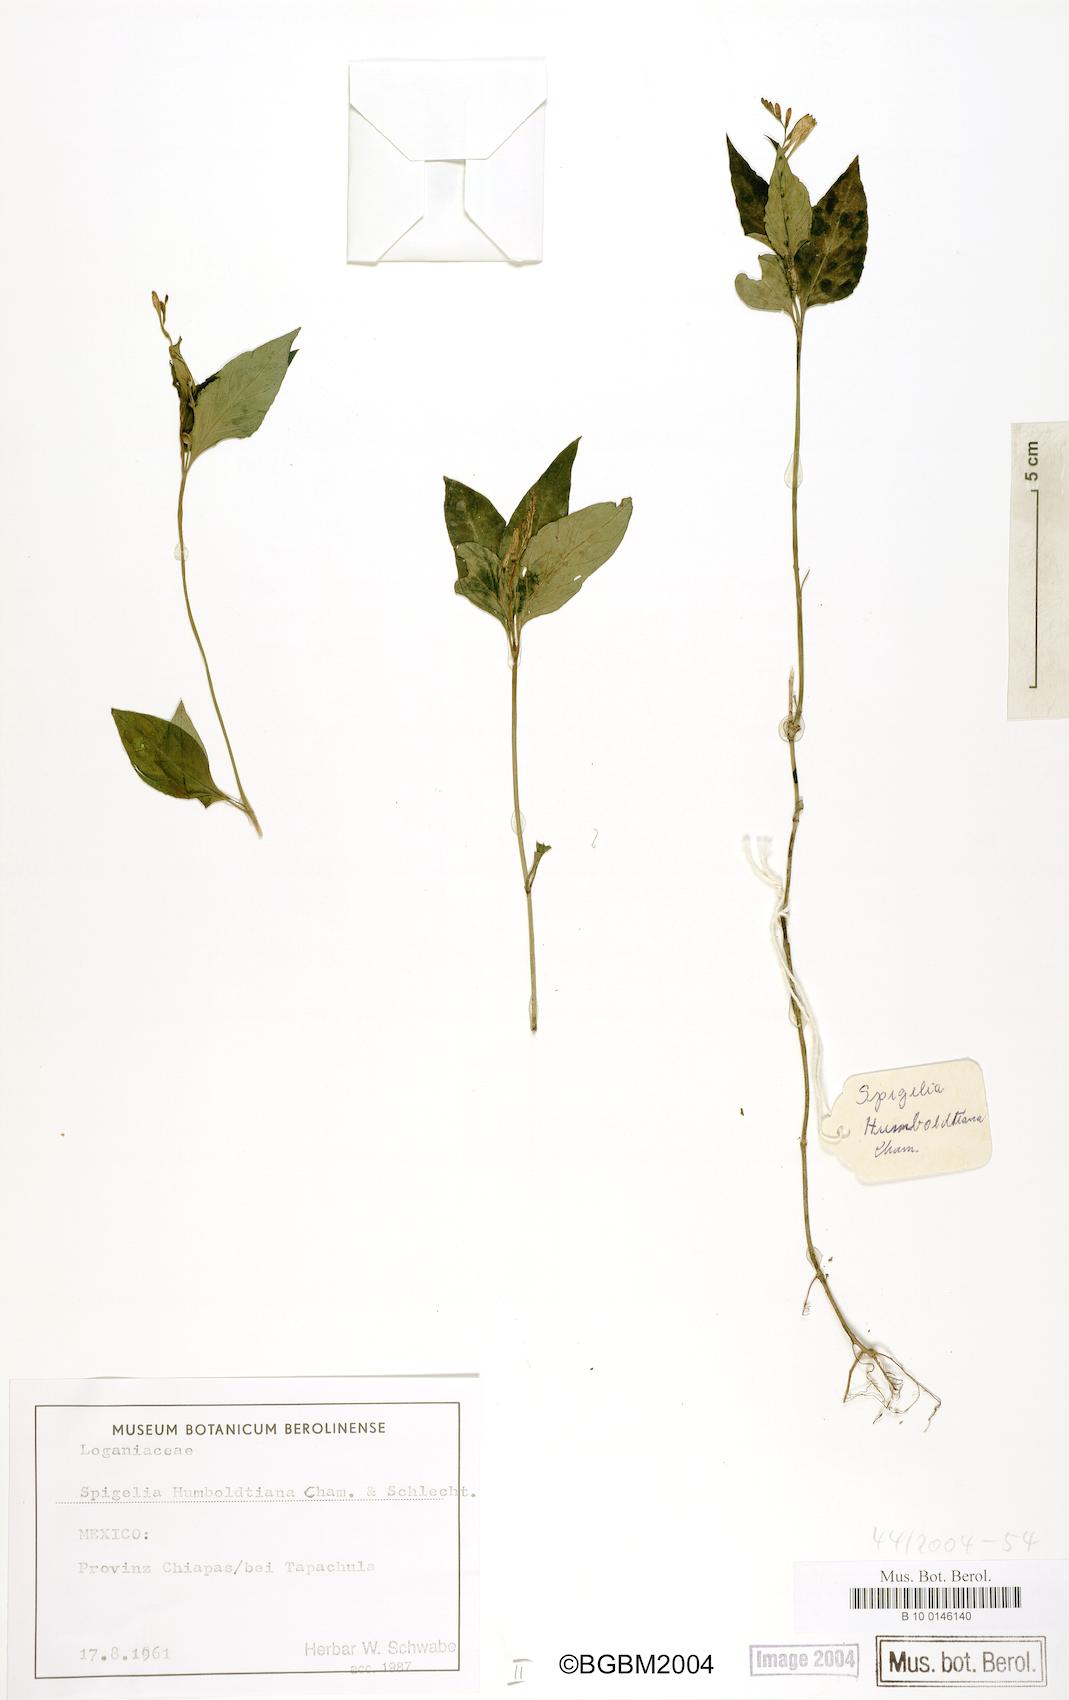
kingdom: Plantae
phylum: Tracheophyta
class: Magnoliopsida
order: Gentianales
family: Loganiaceae
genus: Spigelia
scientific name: Spigelia humboldtiana
